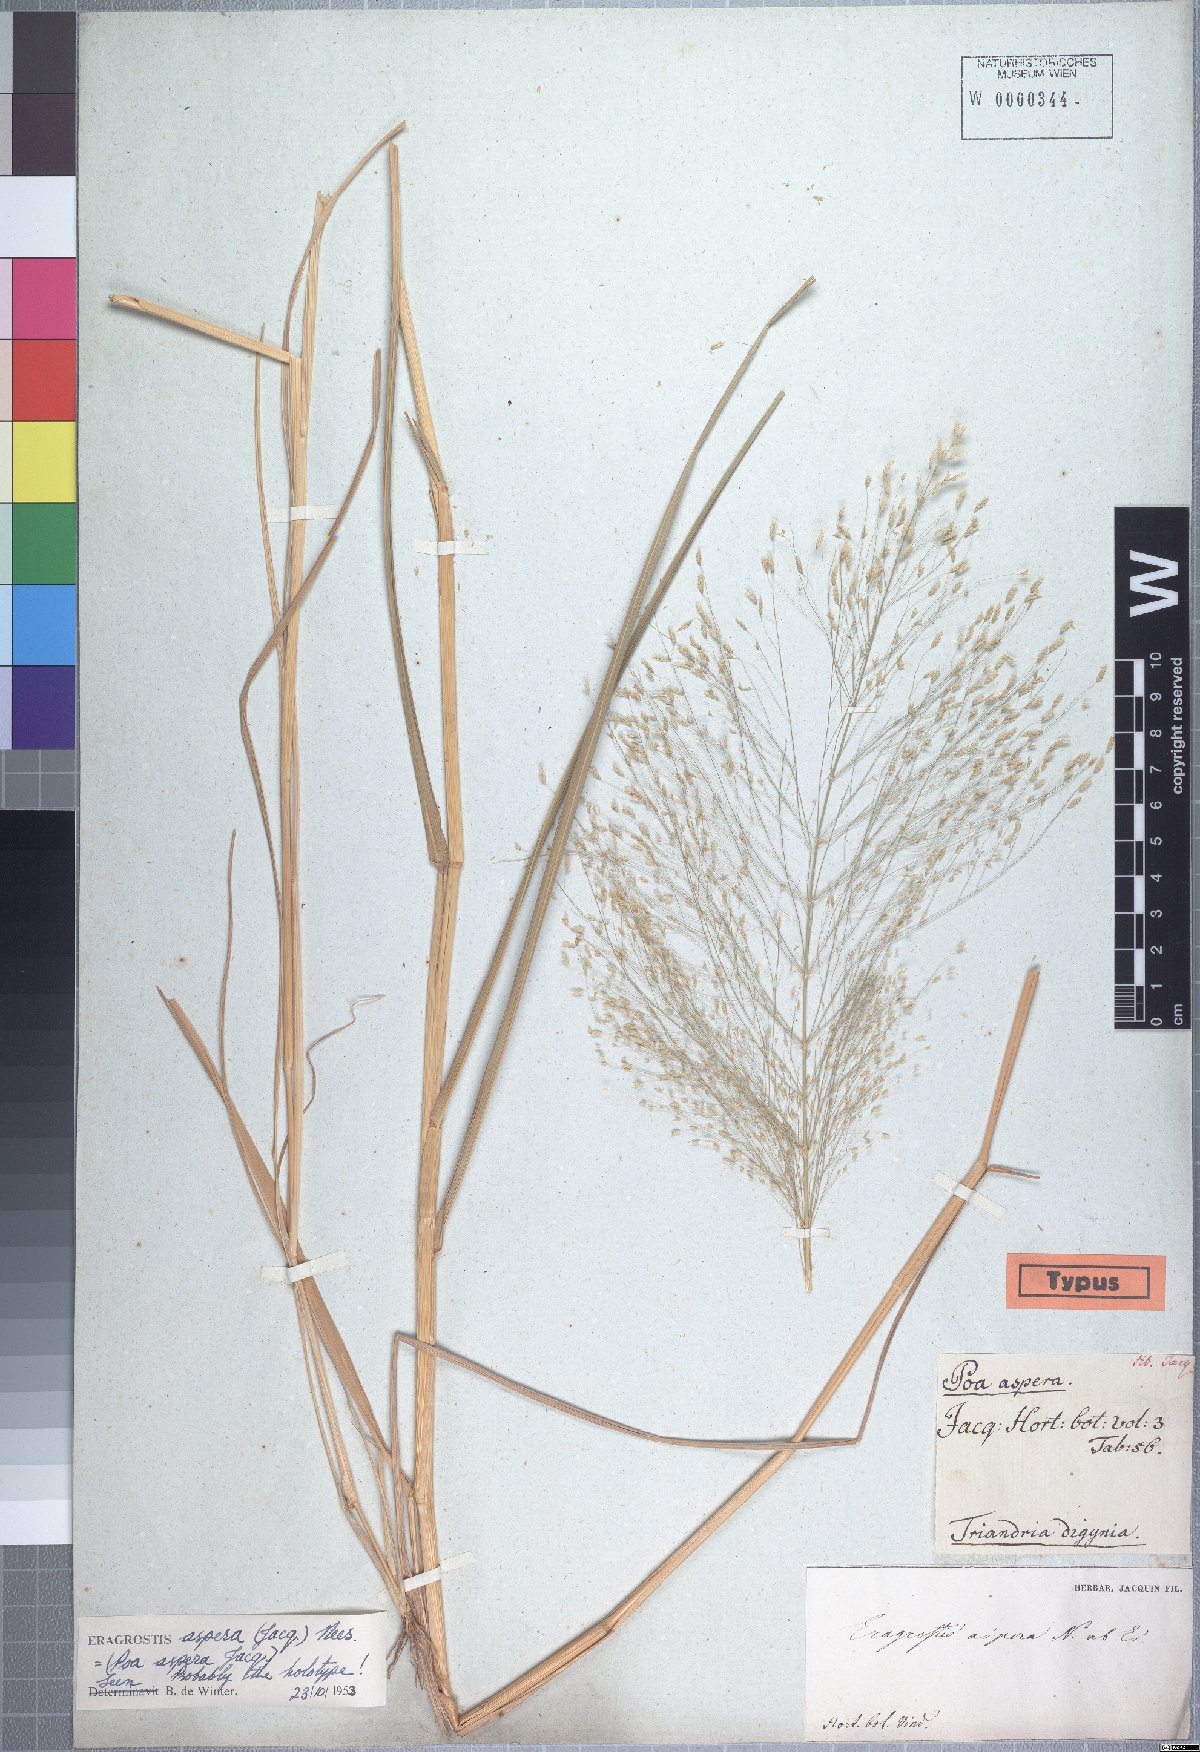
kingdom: Plantae
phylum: Tracheophyta
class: Liliopsida
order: Poales
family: Poaceae
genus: Eragrostis
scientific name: Eragrostis aspera
